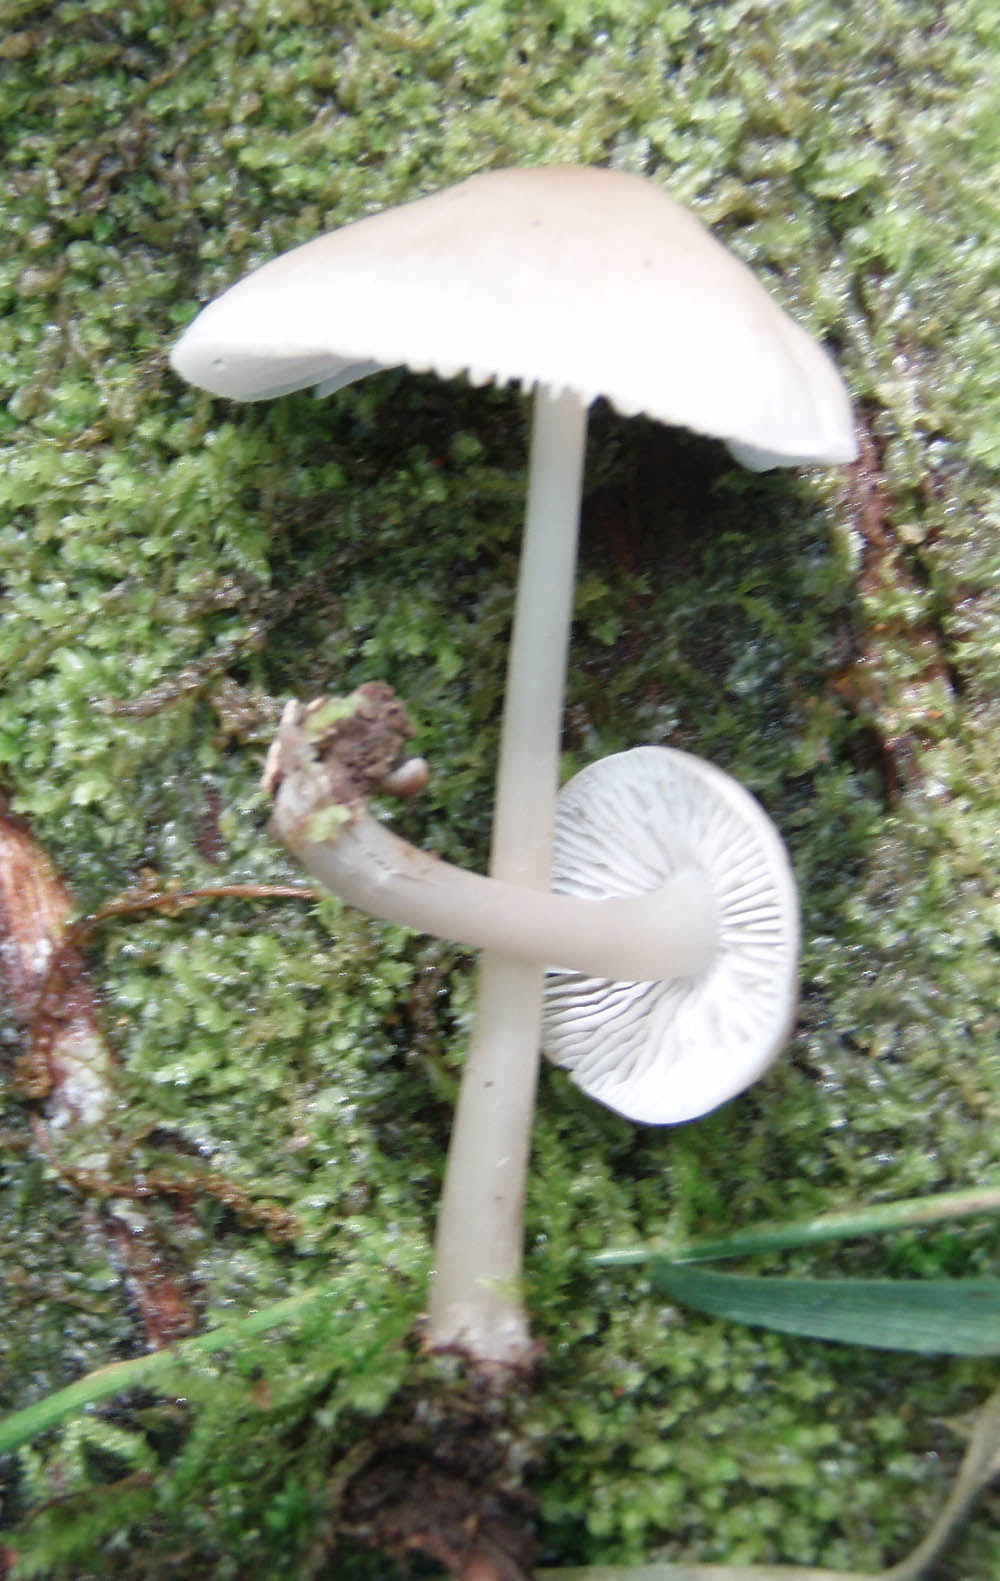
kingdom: Fungi
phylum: Basidiomycota
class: Agaricomycetes
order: Agaricales
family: Mycenaceae
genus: Mycena
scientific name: Mycena galericulata
